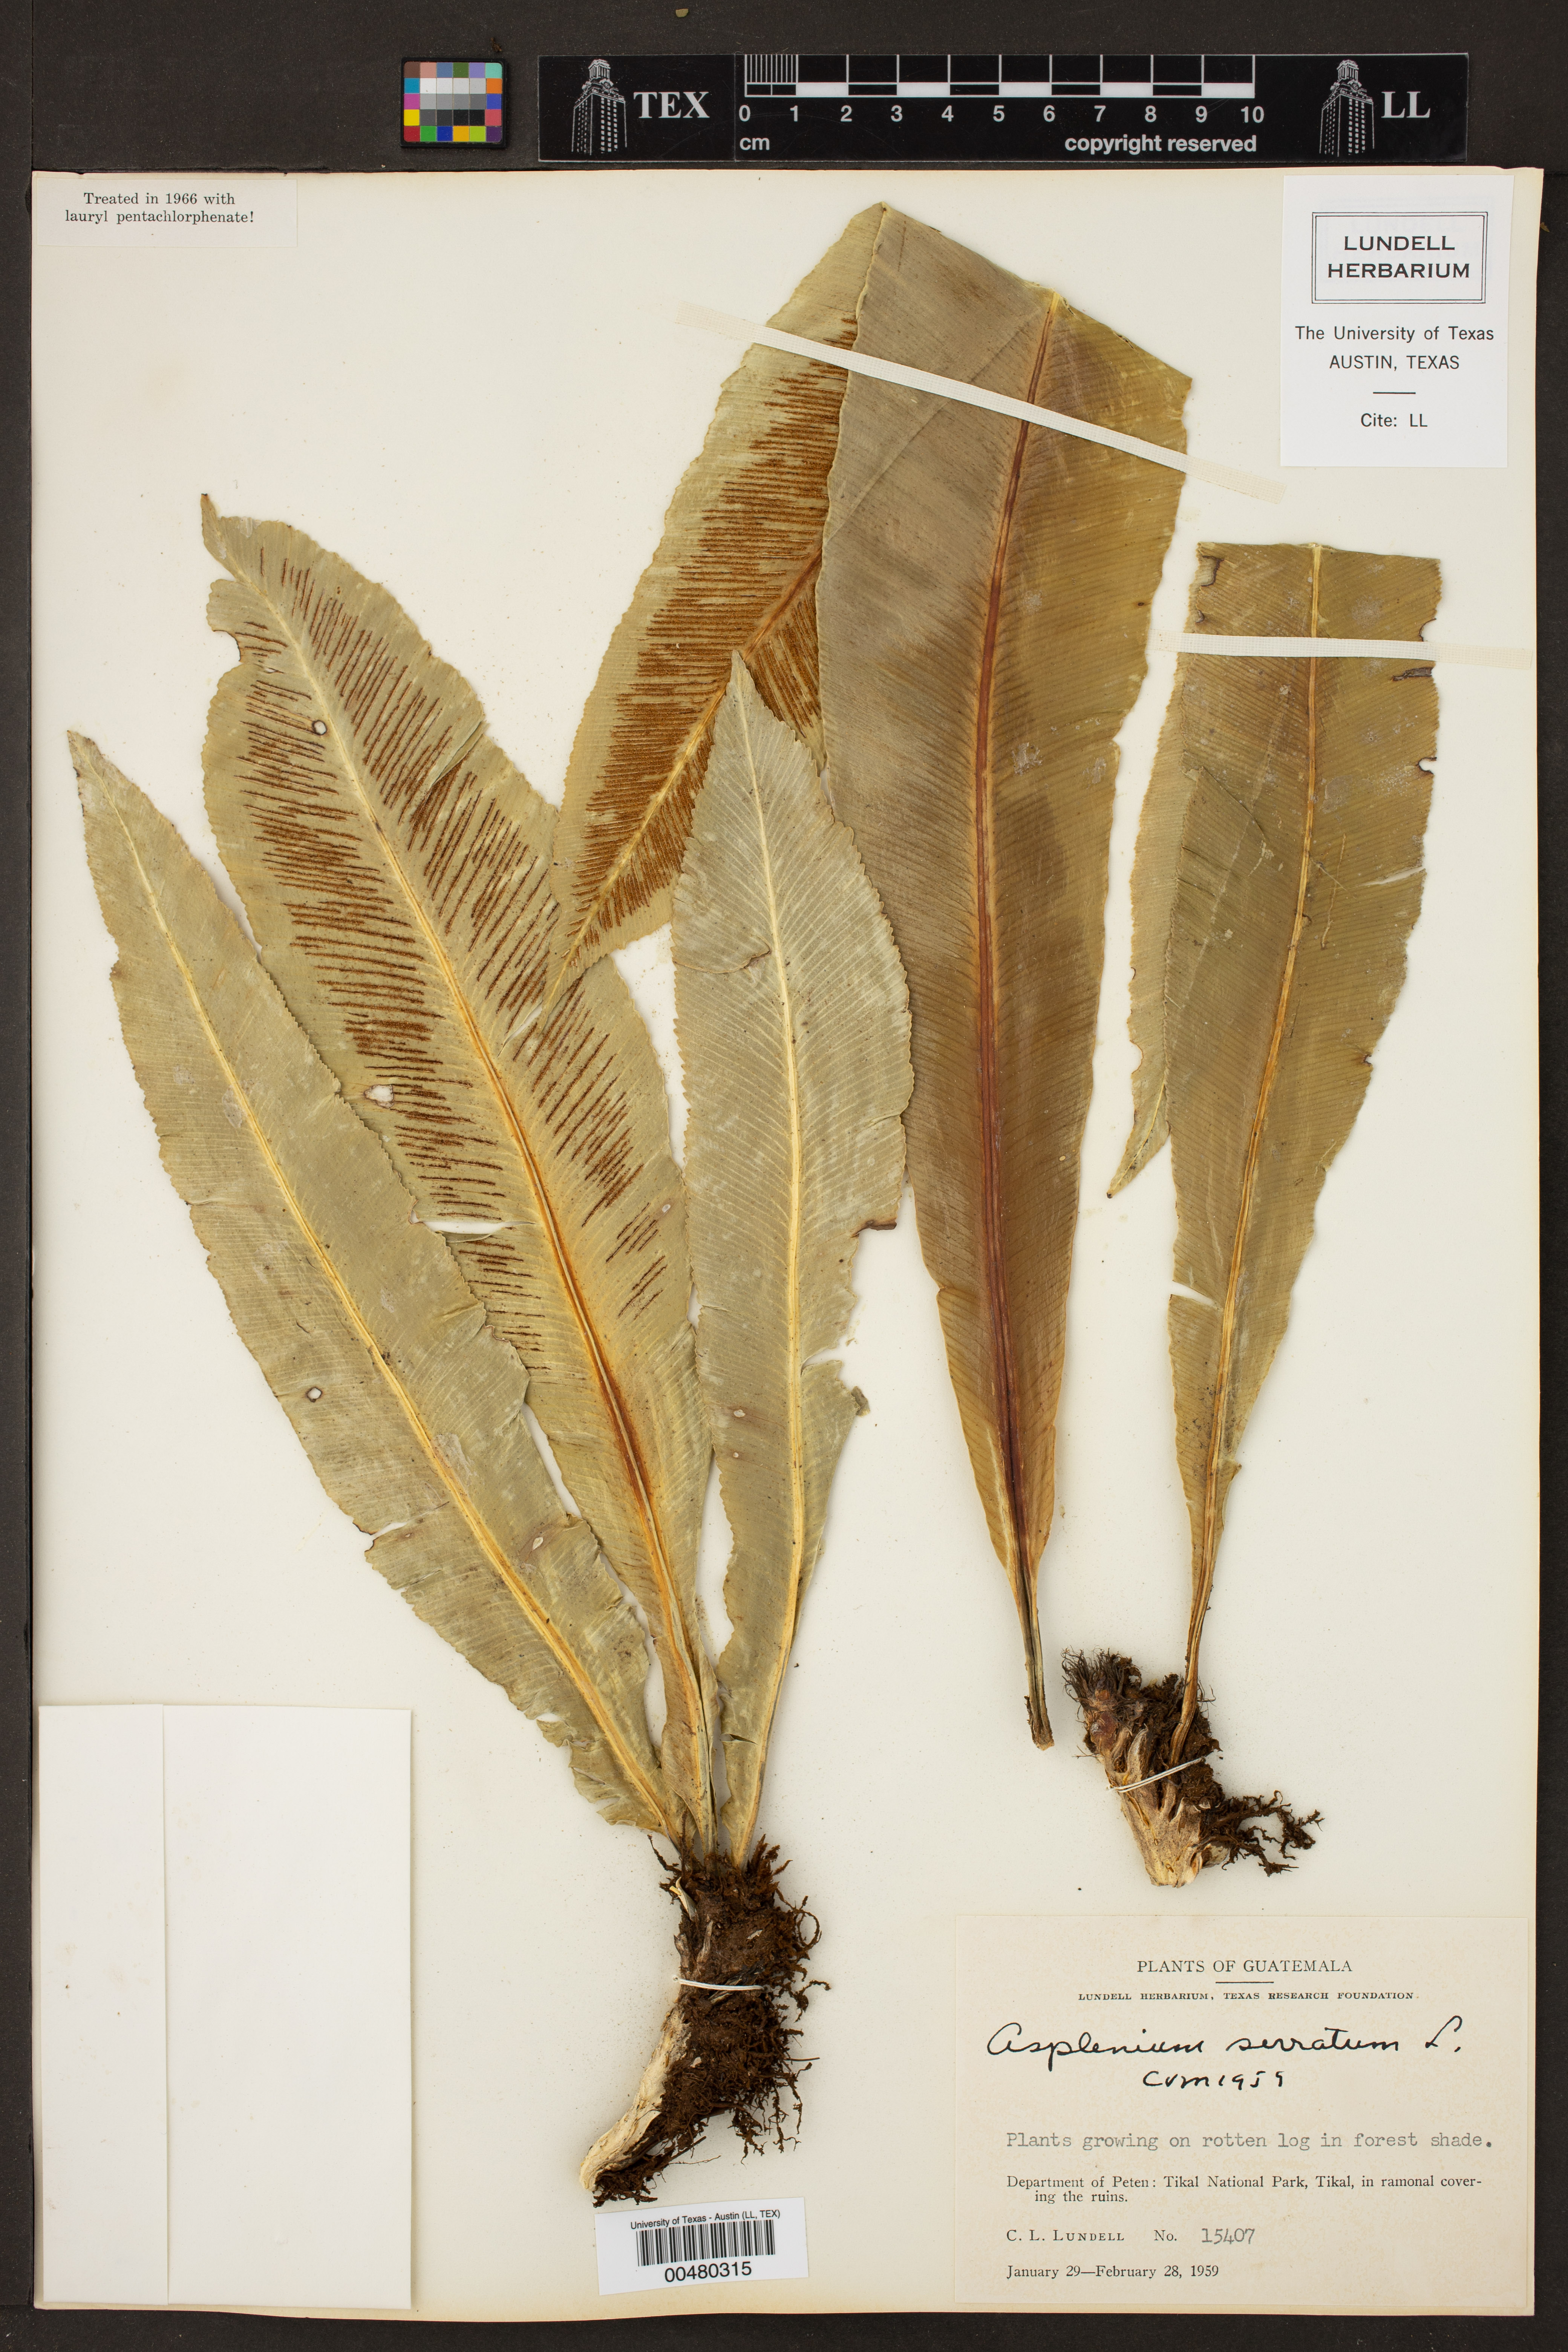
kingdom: Plantae
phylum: Tracheophyta
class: Polypodiopsida
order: Polypodiales
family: Aspleniaceae
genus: Asplenium
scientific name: Asplenium serratum
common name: Wild birdnest fern
